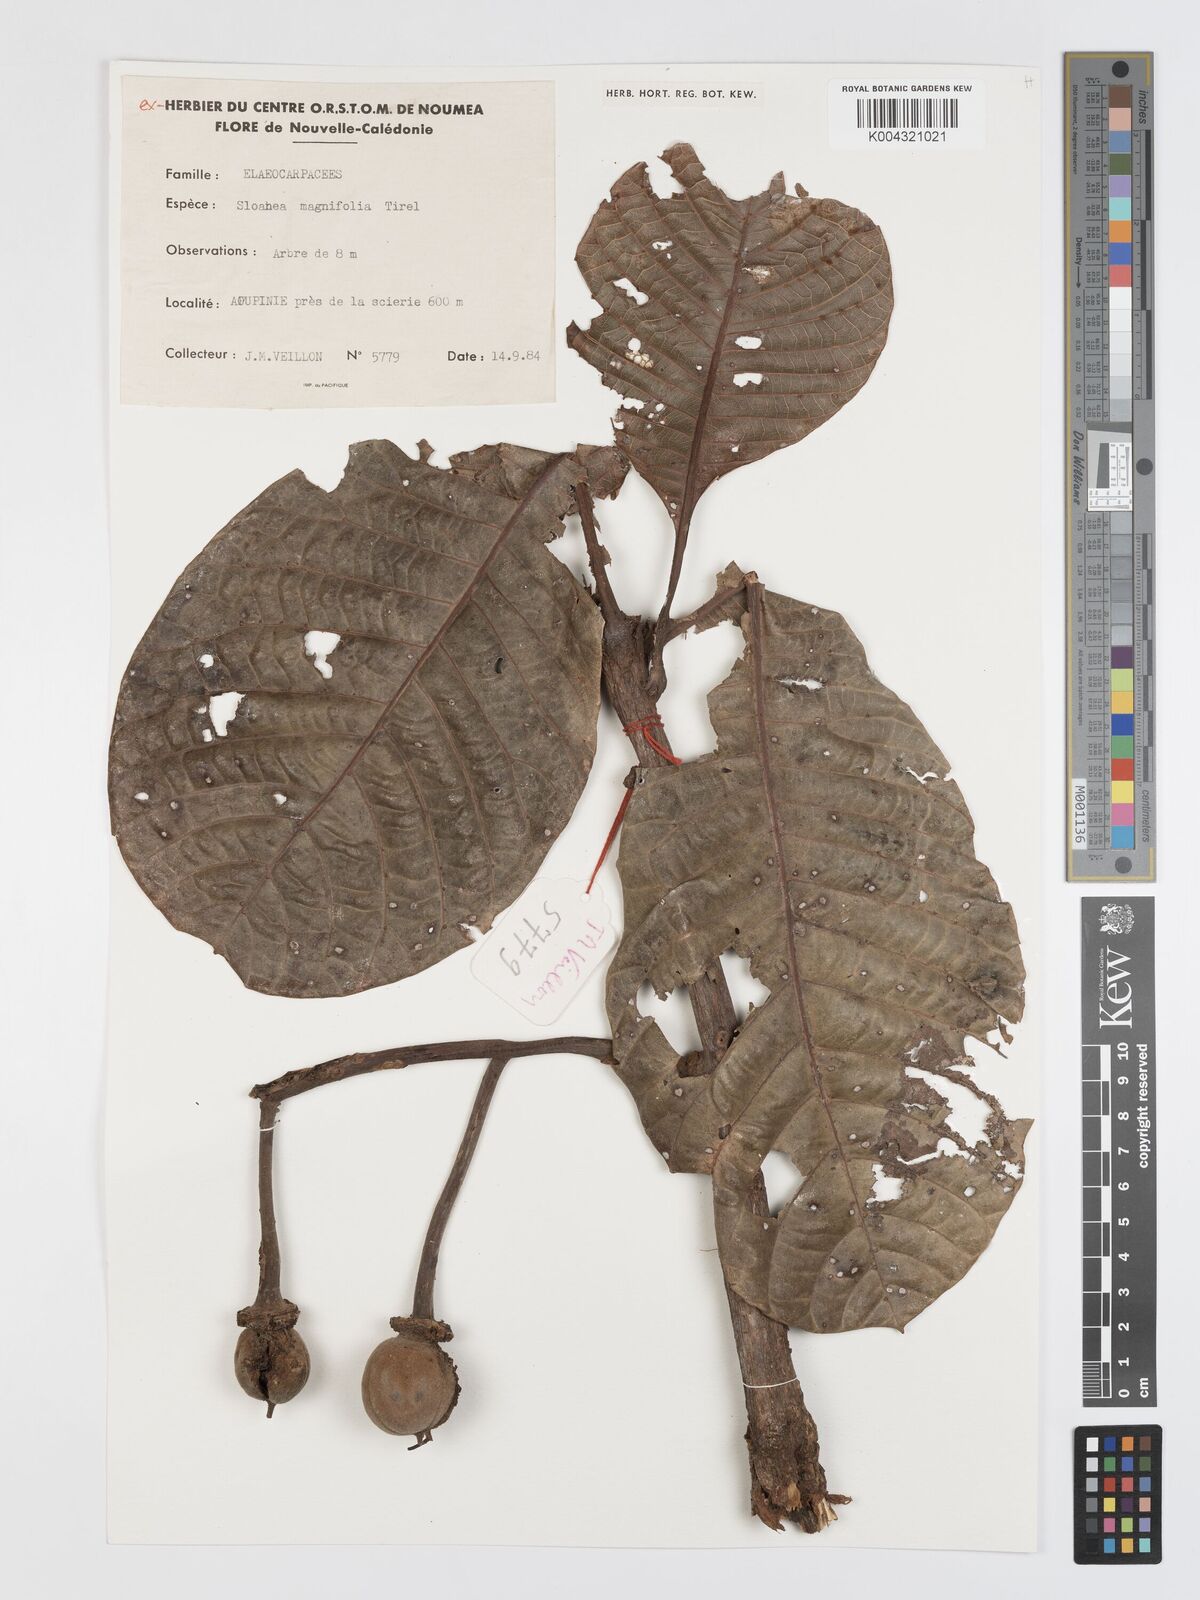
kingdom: Plantae
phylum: Tracheophyta
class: Magnoliopsida
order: Oxalidales
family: Elaeocarpaceae
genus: Sloanea
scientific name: Sloanea magnifolia
